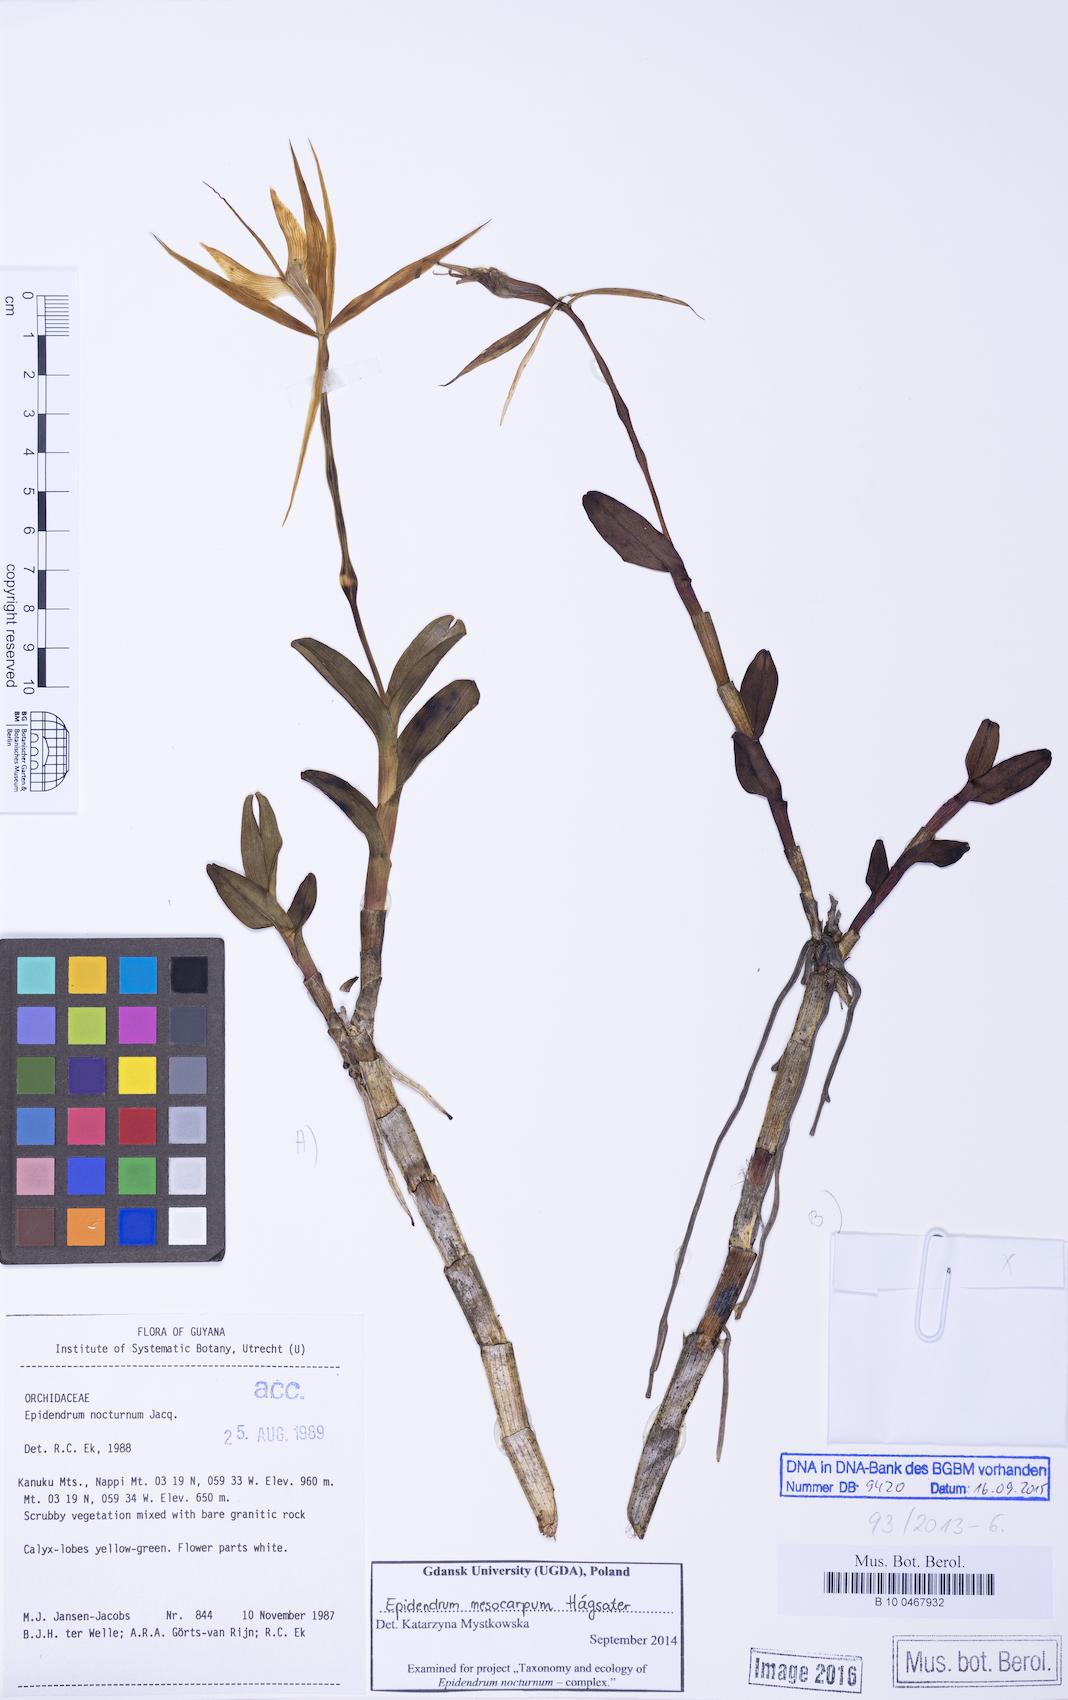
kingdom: Plantae
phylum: Tracheophyta
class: Liliopsida
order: Asparagales
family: Orchidaceae
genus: Epidendrum
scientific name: Epidendrum mesocarpum
